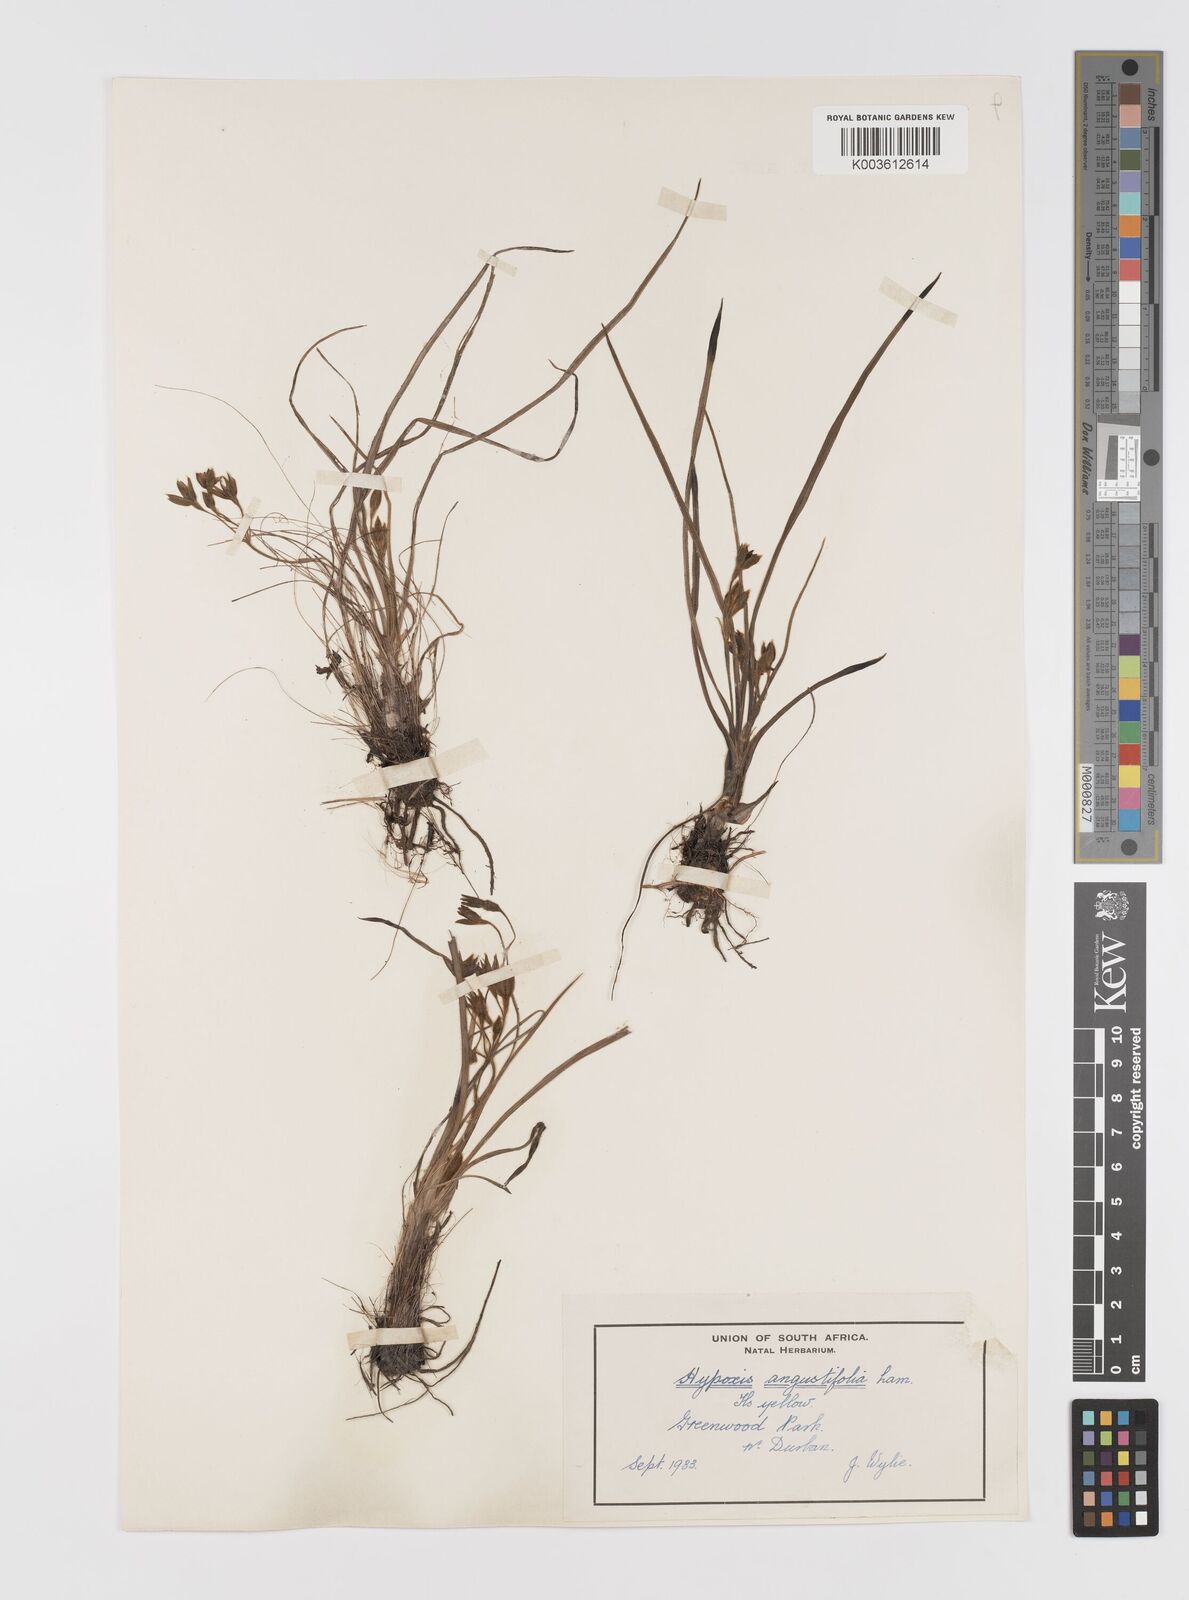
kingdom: Plantae
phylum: Tracheophyta
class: Liliopsida
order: Asparagales
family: Hypoxidaceae
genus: Hypoxis
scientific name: Hypoxis
